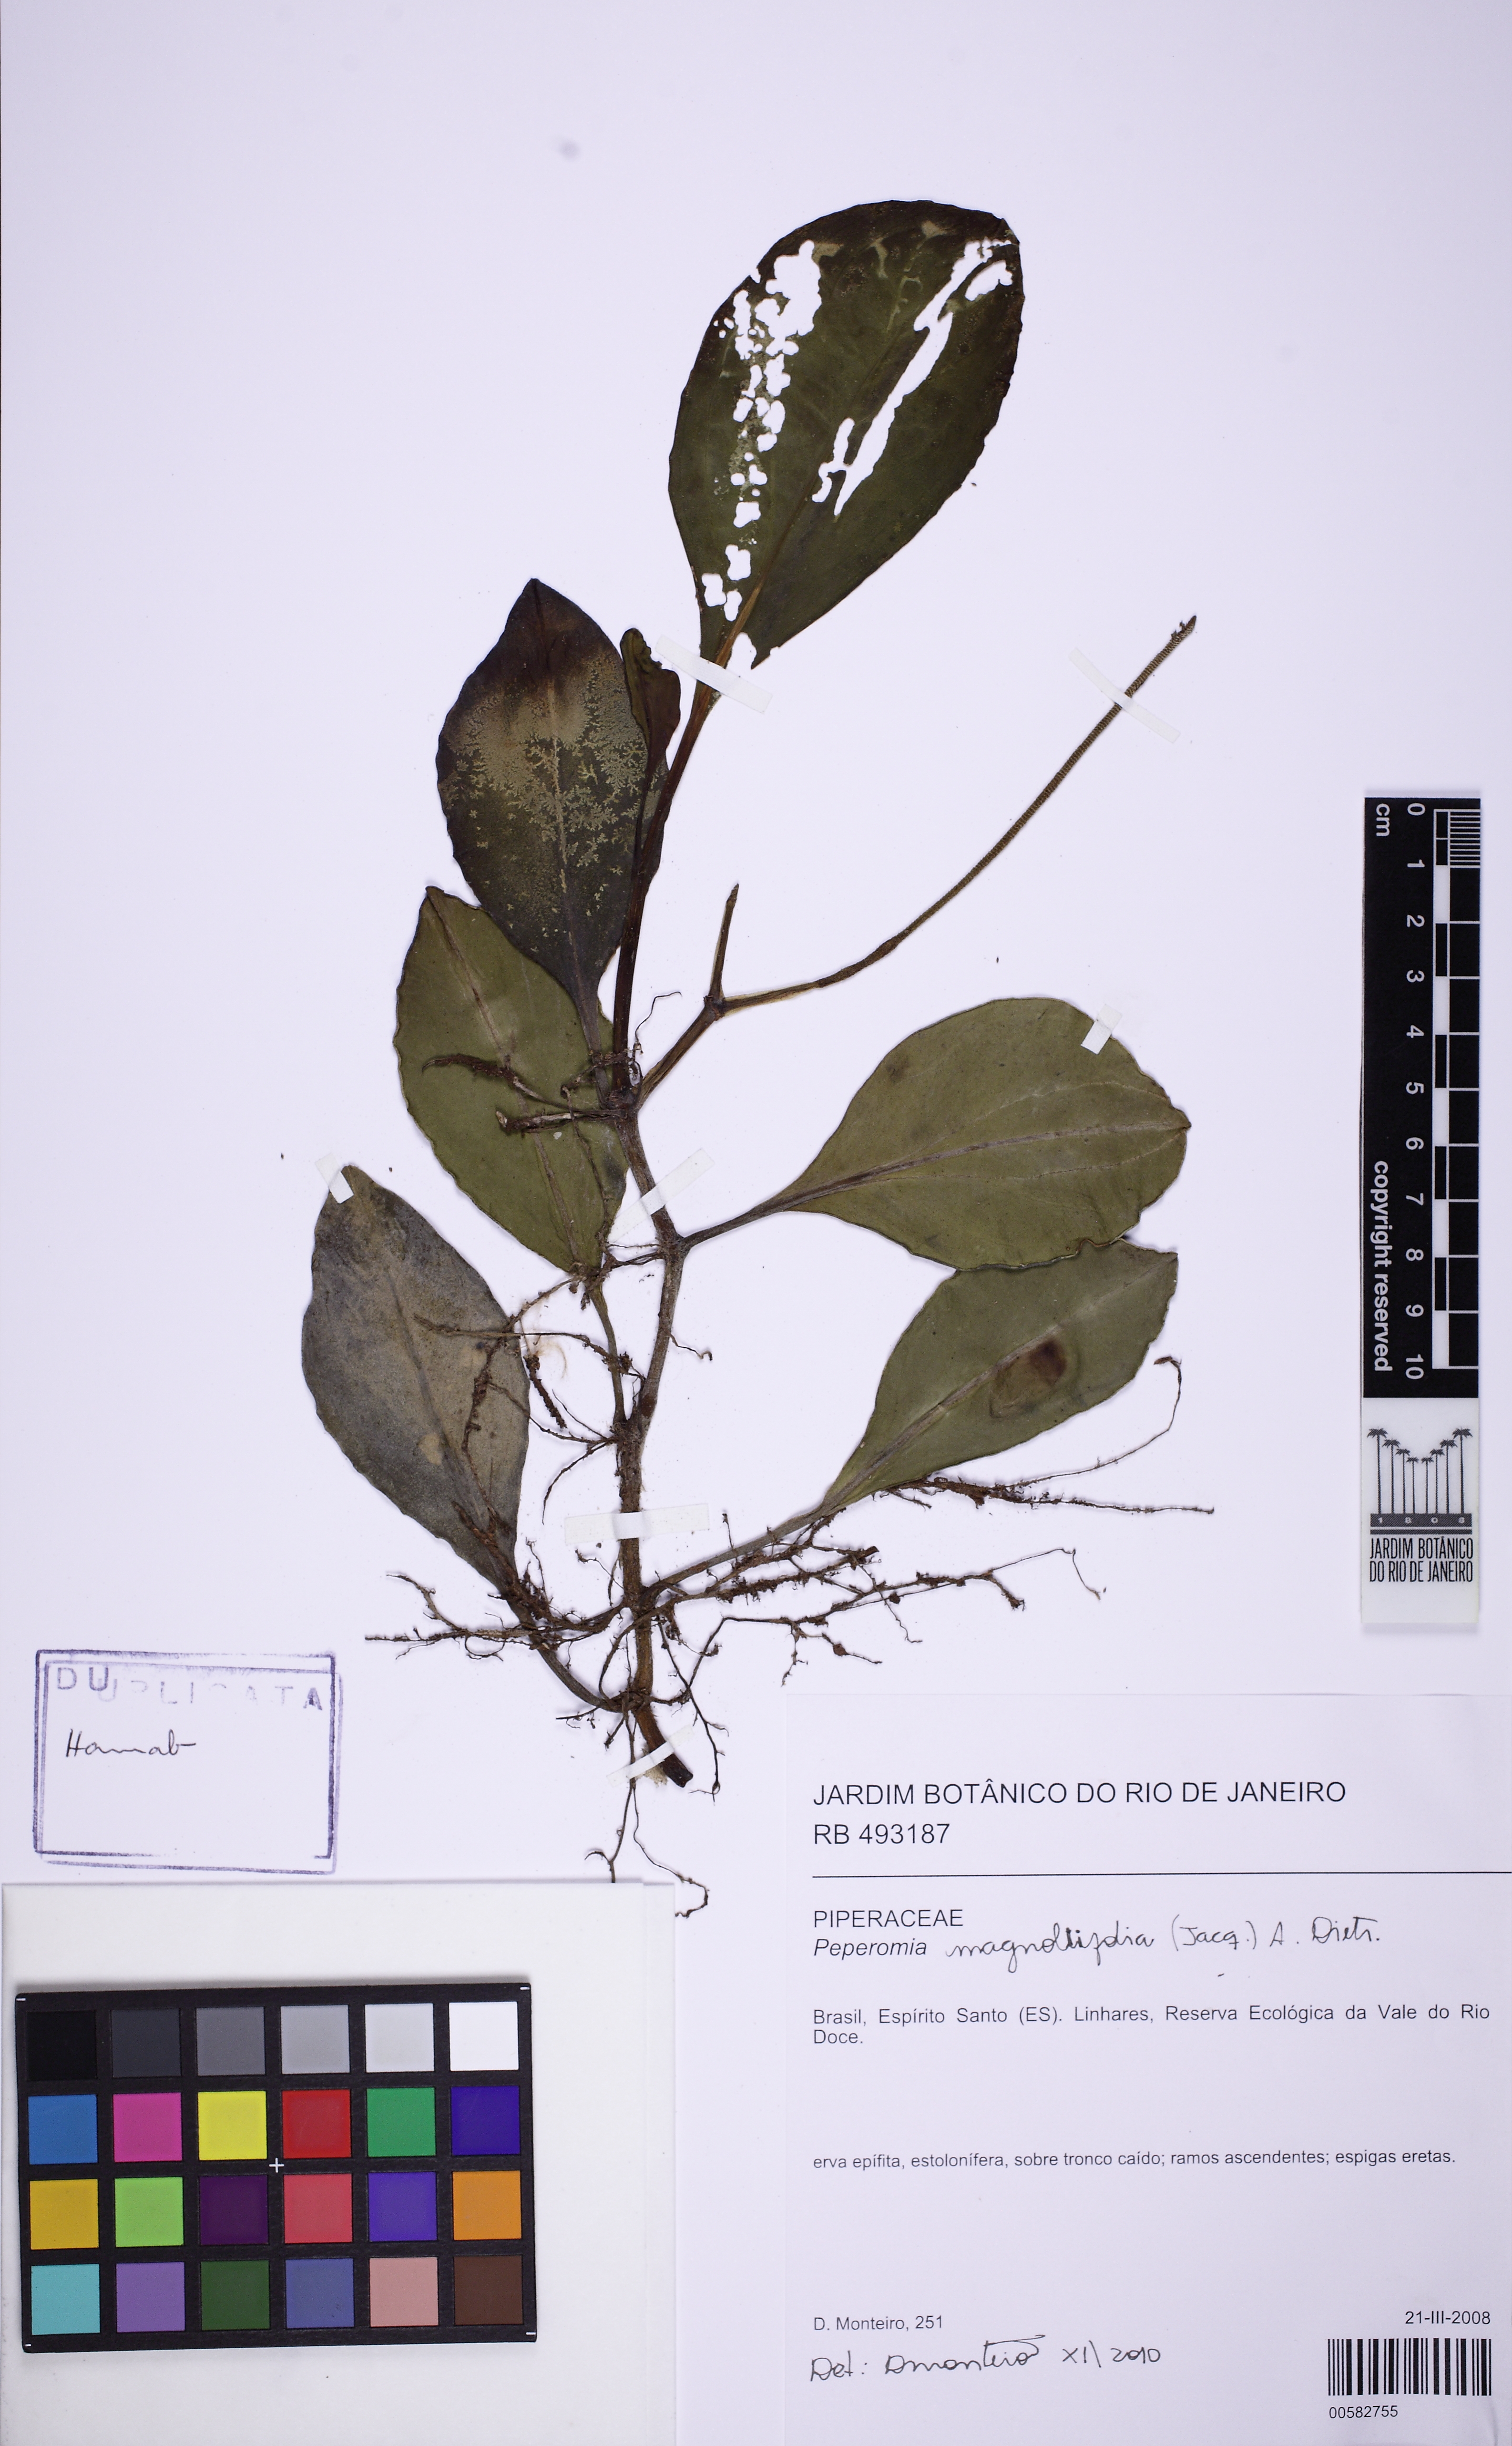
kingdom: Plantae
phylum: Tracheophyta
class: Magnoliopsida
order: Piperales
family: Piperaceae
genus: Peperomia
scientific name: Peperomia magnoliifolia
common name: Spoonleaf peperomia
